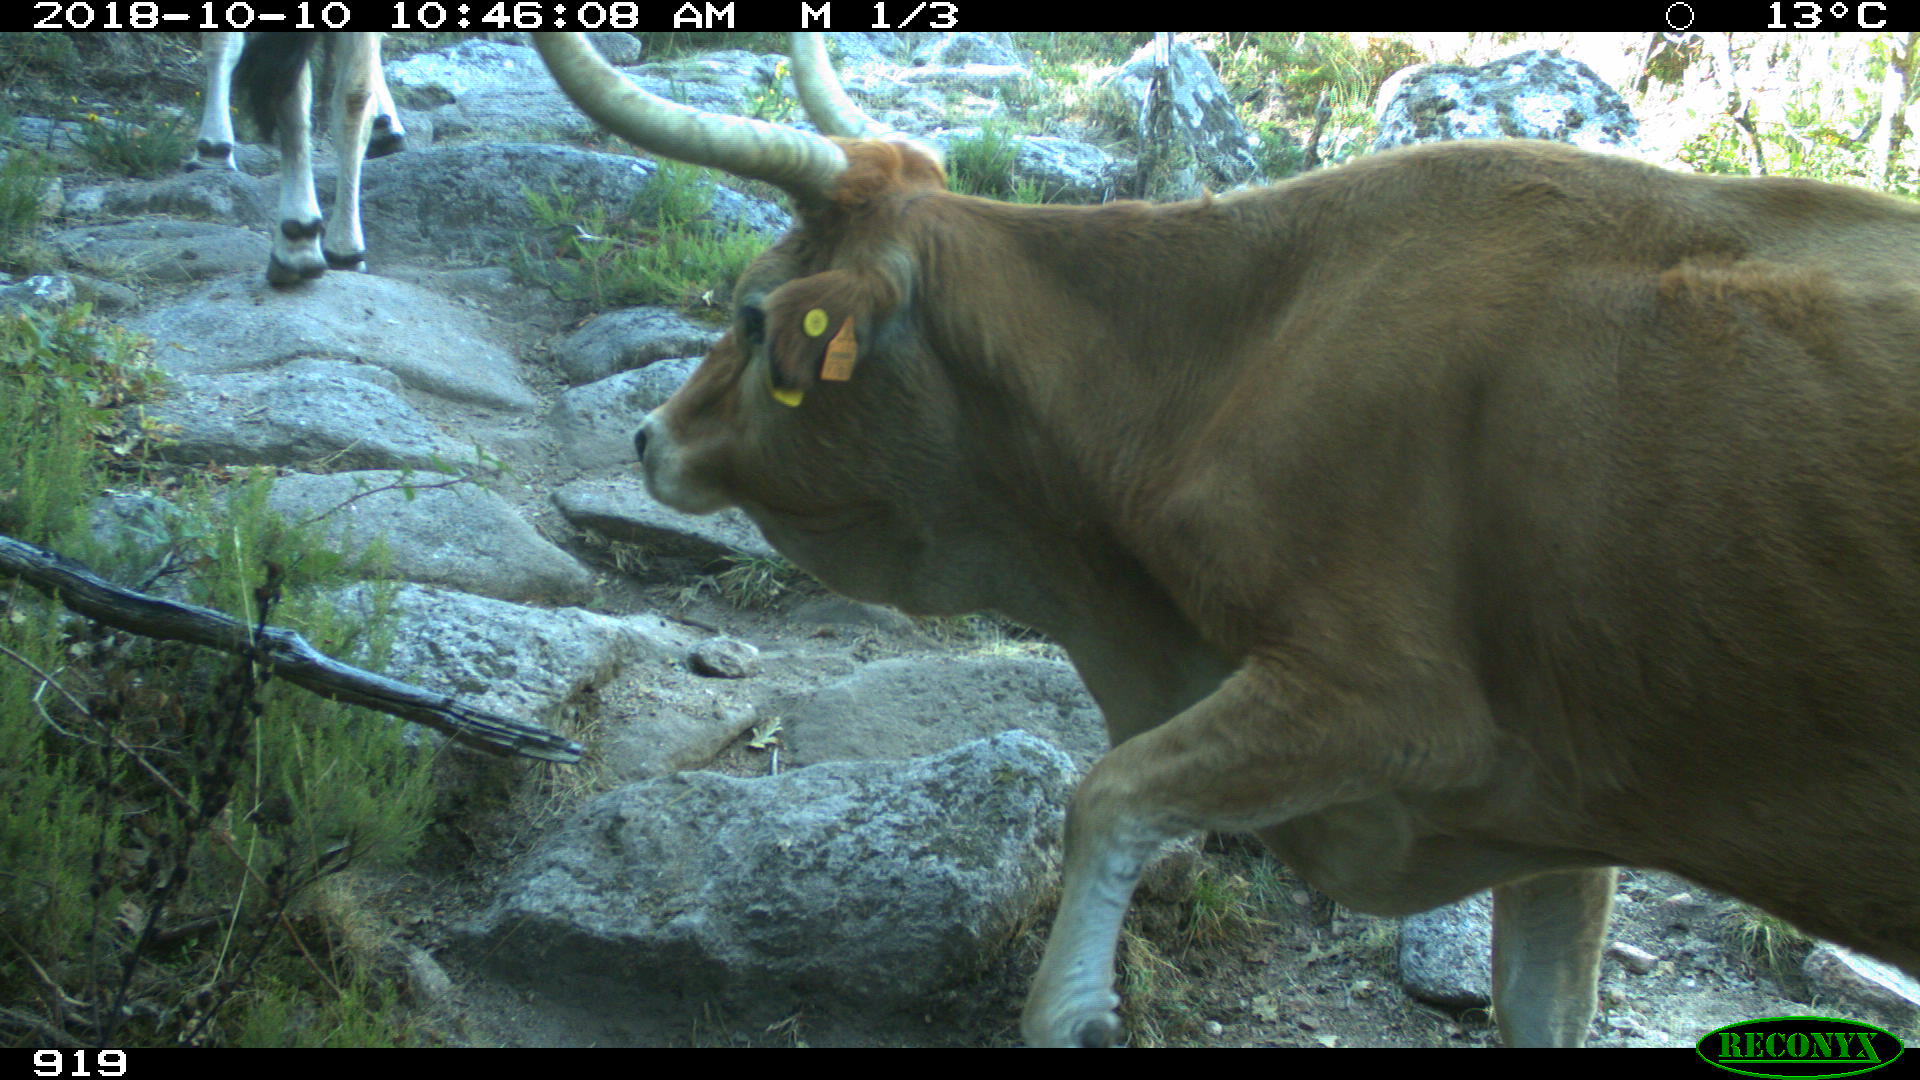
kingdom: Animalia
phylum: Chordata
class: Mammalia
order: Artiodactyla
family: Bovidae
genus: Bos
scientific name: Bos taurus
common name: Domesticated cattle
